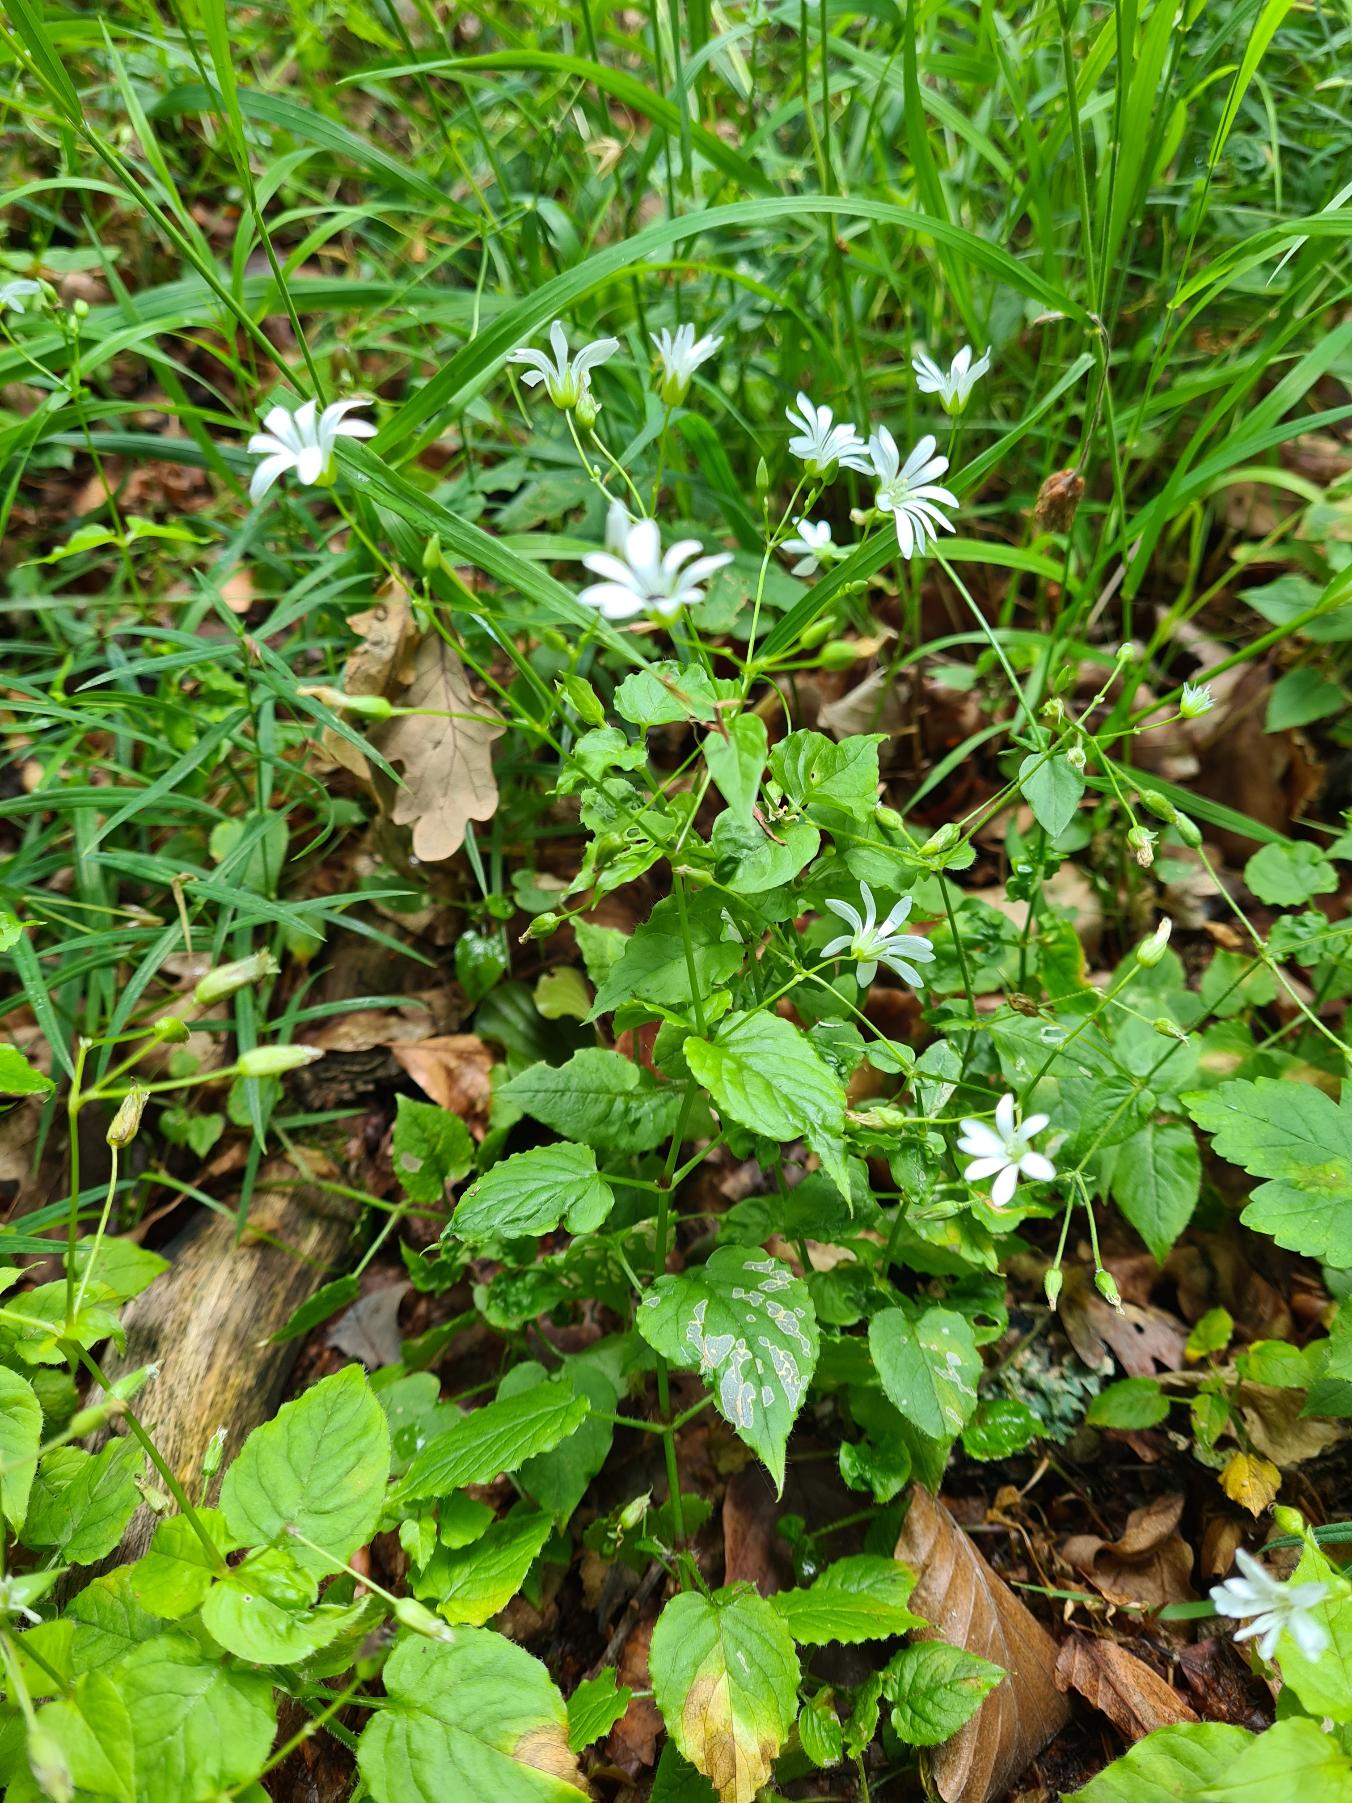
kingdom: Plantae
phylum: Tracheophyta
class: Magnoliopsida
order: Caryophyllales
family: Caryophyllaceae
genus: Stellaria
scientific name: Stellaria nemorum
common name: Lund-fladstjerne
